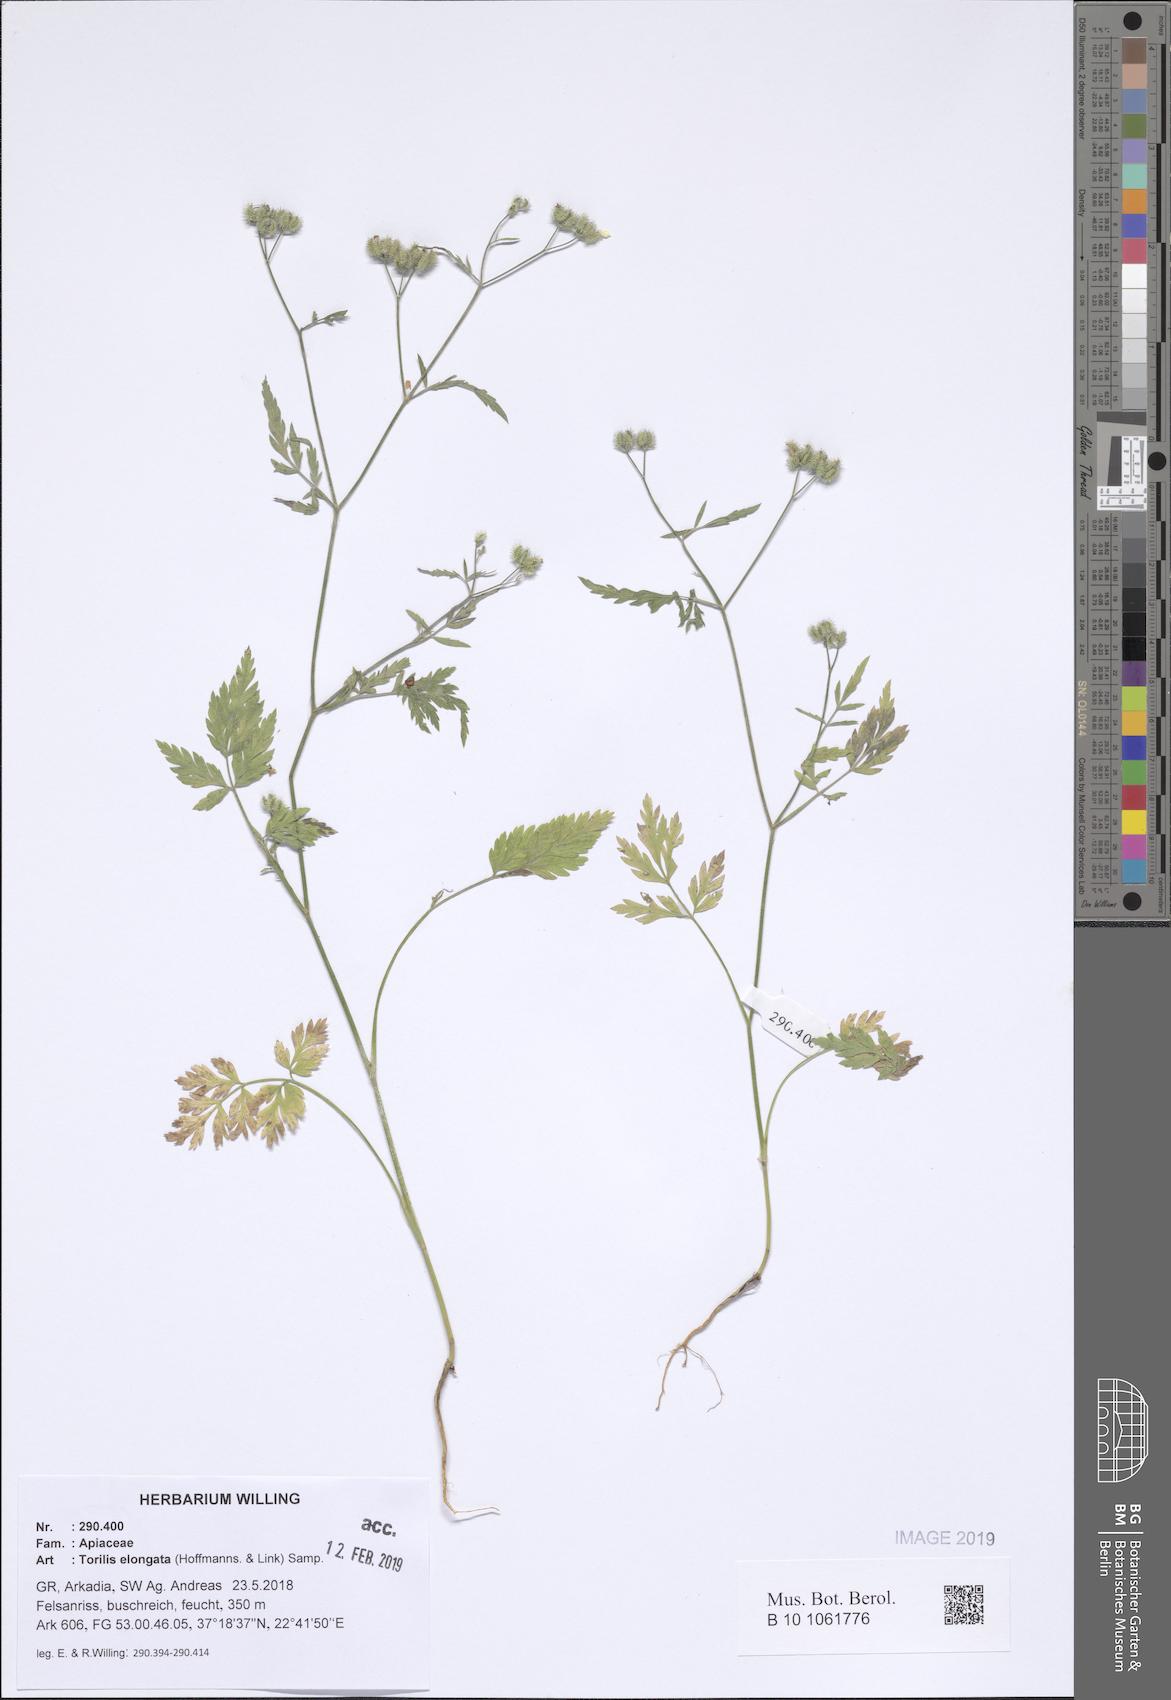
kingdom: Plantae
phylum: Tracheophyta
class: Magnoliopsida
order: Apiales
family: Apiaceae
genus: Torilis
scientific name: Torilis elongata
